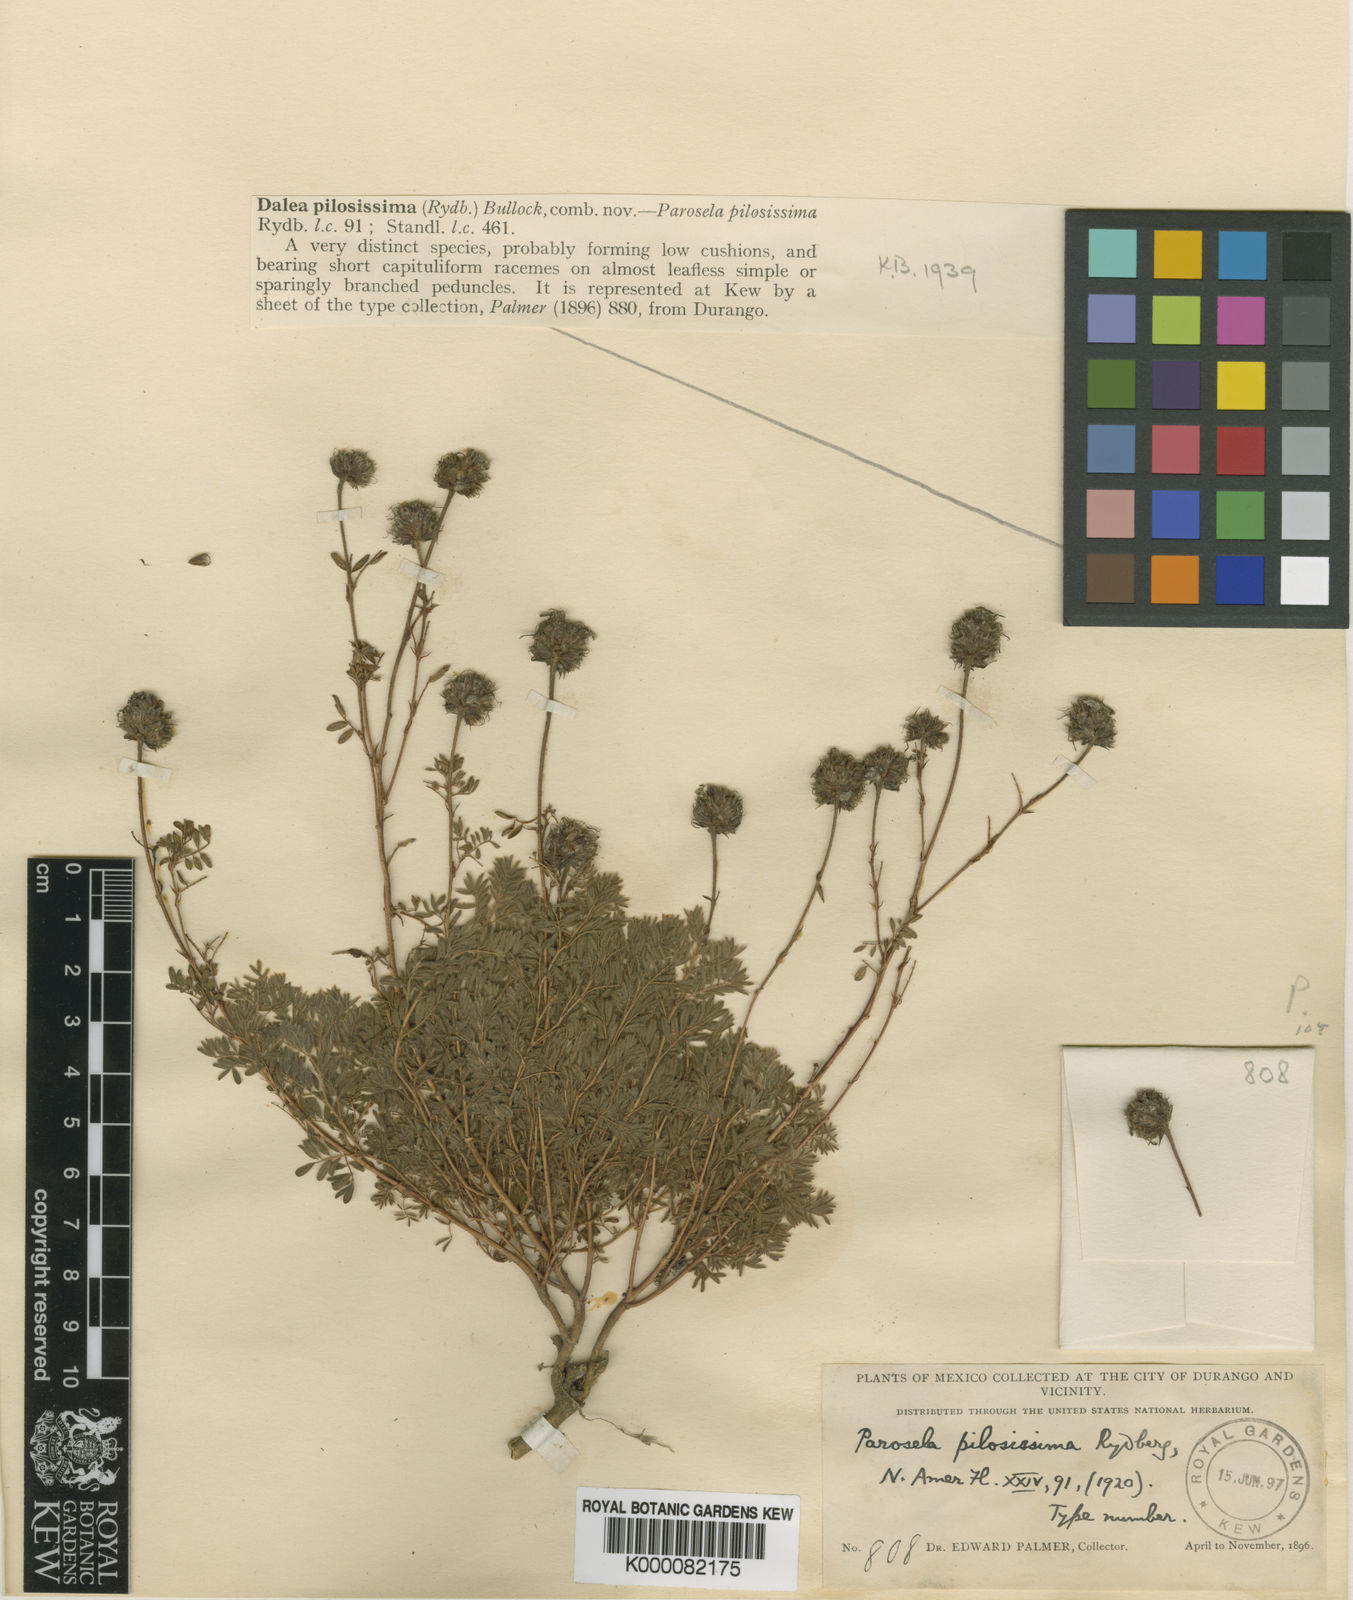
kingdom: Plantae
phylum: Tracheophyta
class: Magnoliopsida
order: Fabales
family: Fabaceae
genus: Dalea
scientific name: Dalea
